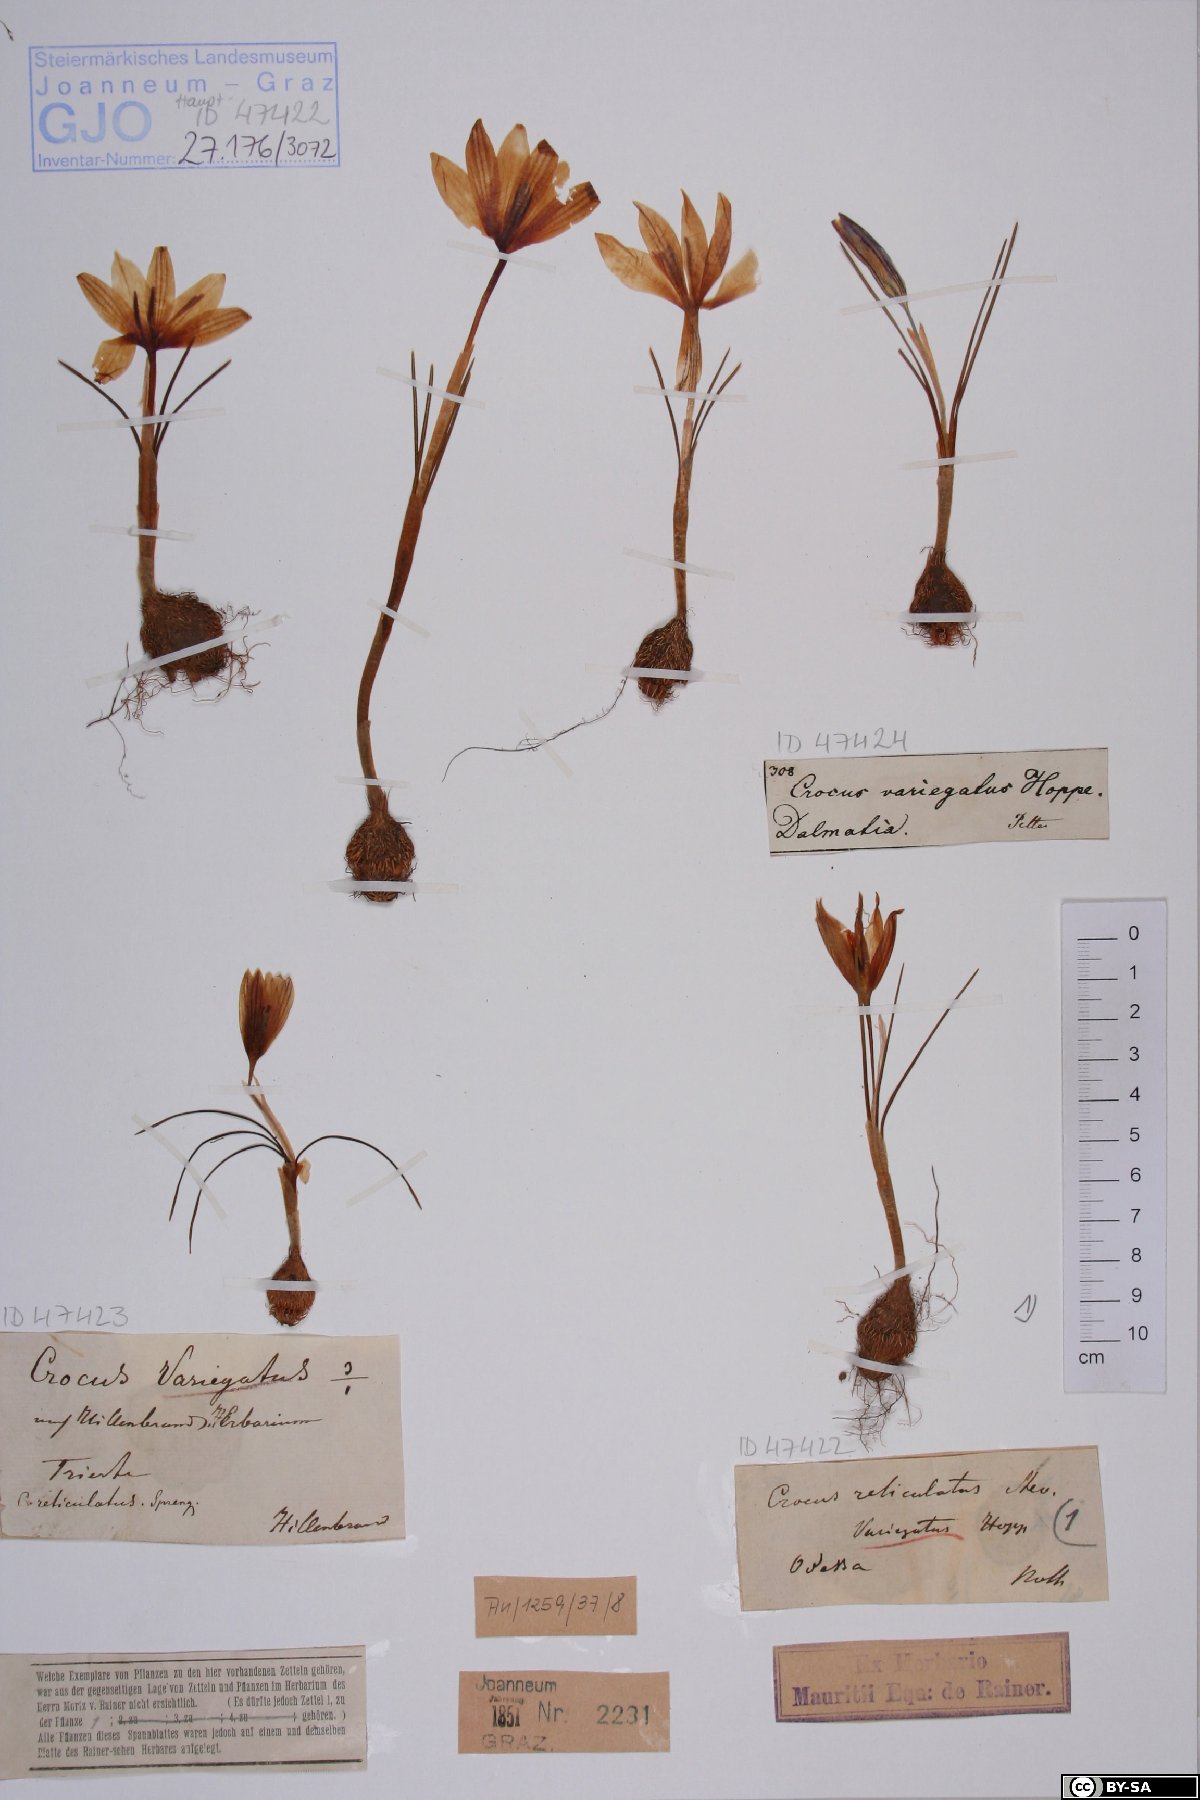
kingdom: Plantae
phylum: Tracheophyta
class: Liliopsida
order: Asparagales
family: Iridaceae
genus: Crocus
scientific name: Crocus reticulatus
